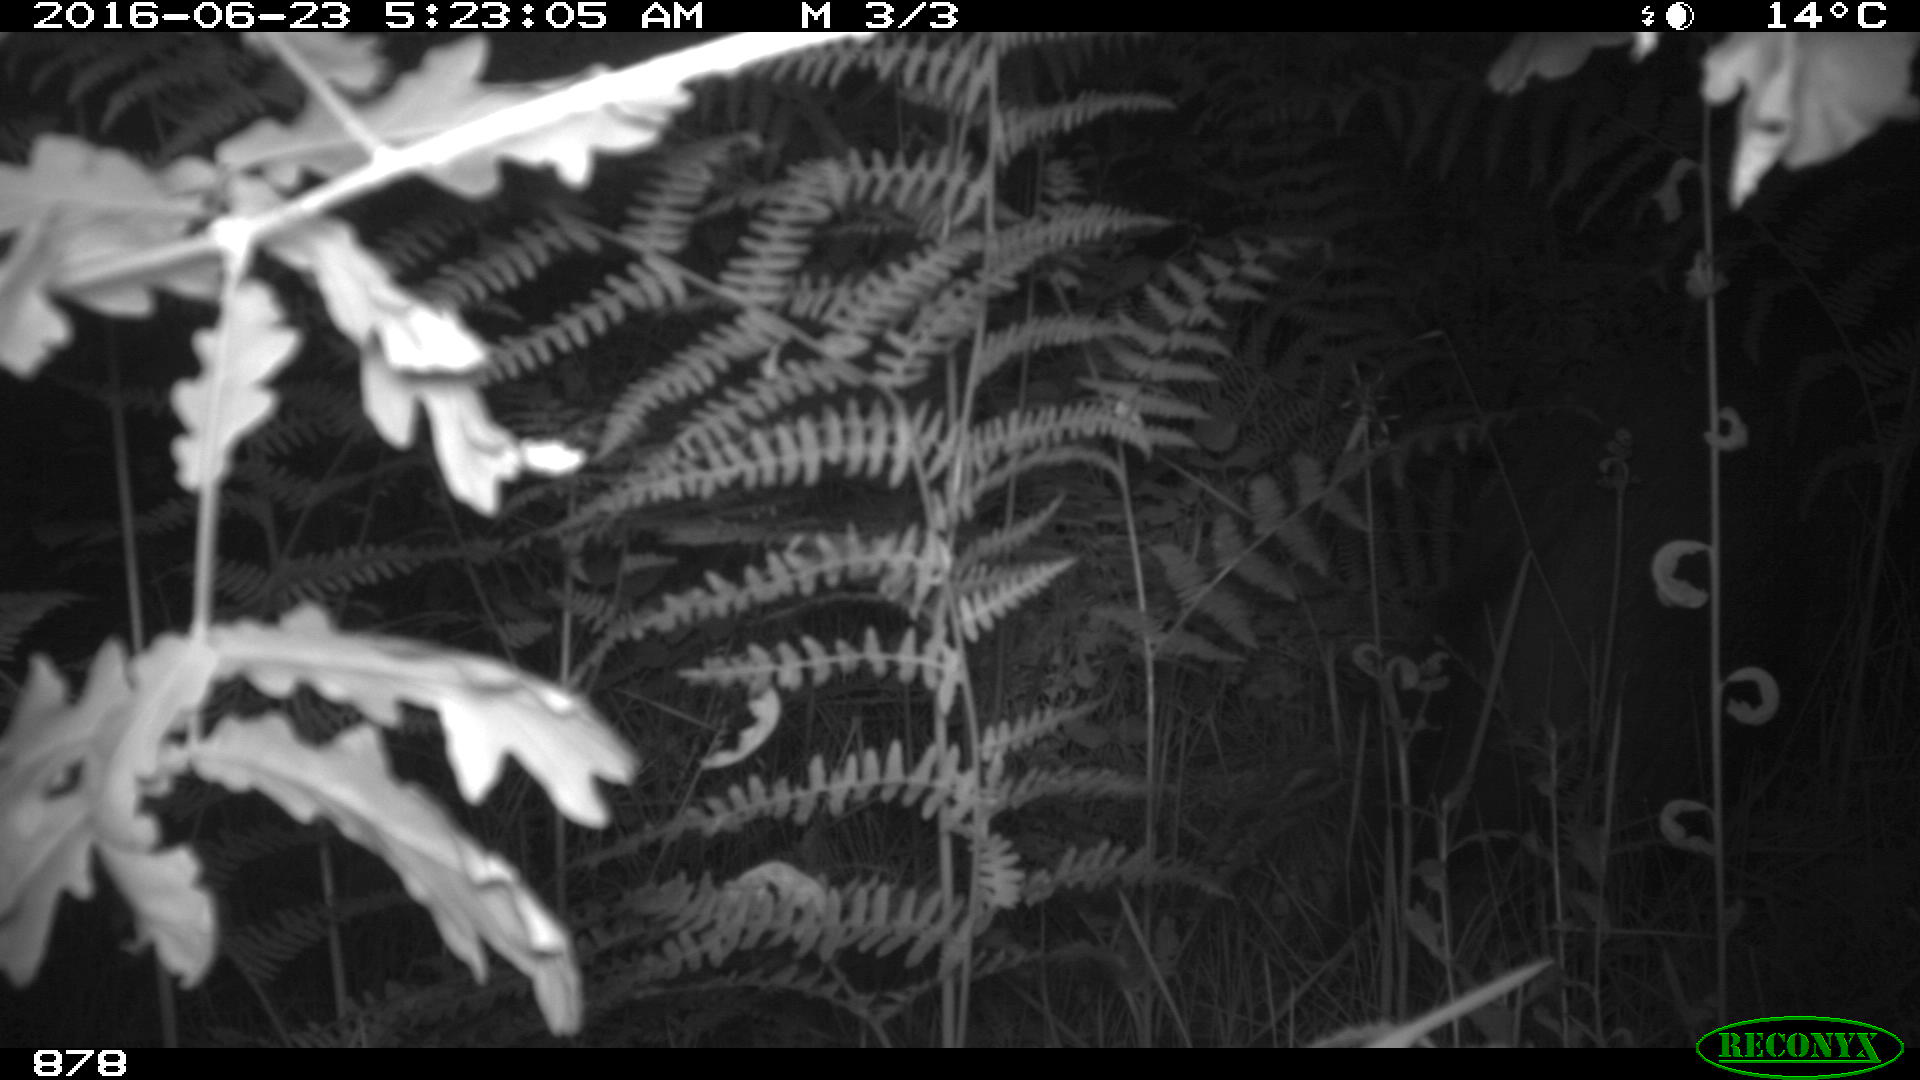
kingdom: Animalia
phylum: Chordata
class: Mammalia
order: Artiodactyla
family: Suidae
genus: Sus
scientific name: Sus scrofa
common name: Wild boar
